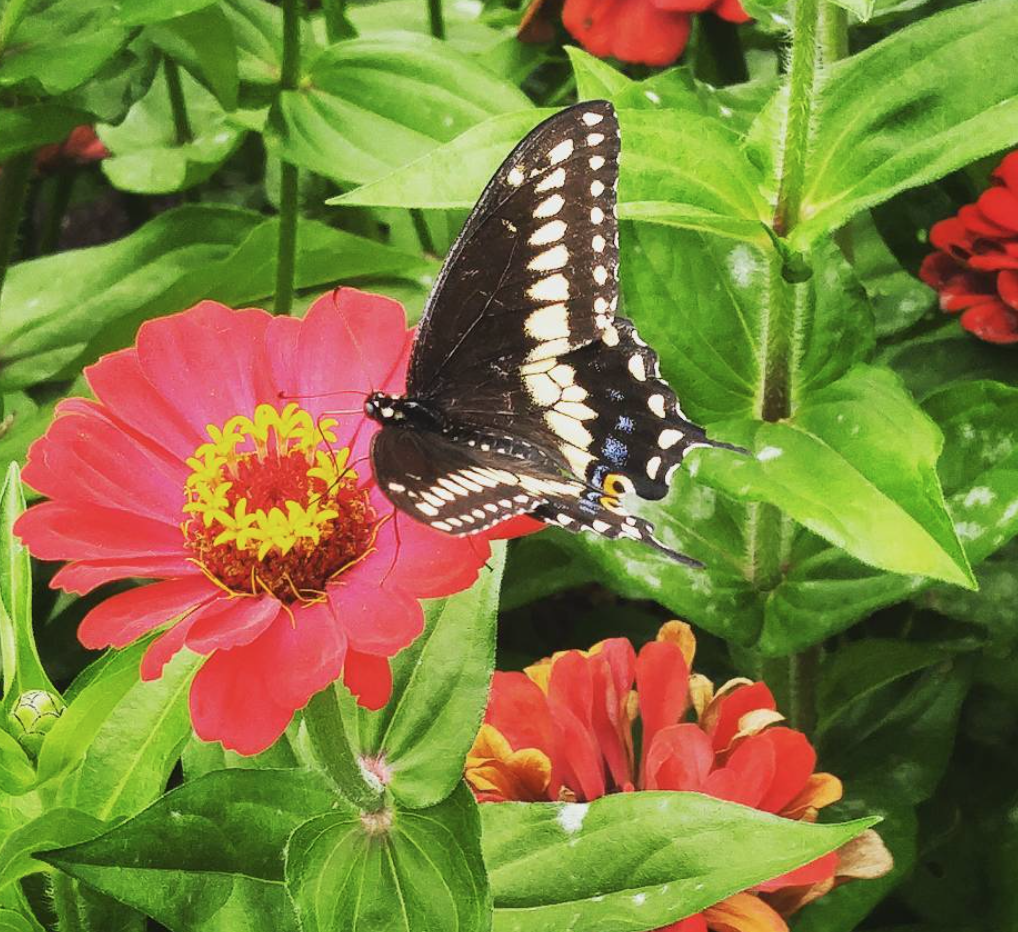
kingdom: Animalia
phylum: Arthropoda
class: Insecta
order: Lepidoptera
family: Papilionidae
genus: Papilio
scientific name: Papilio polyxenes
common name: Black Swallowtail
